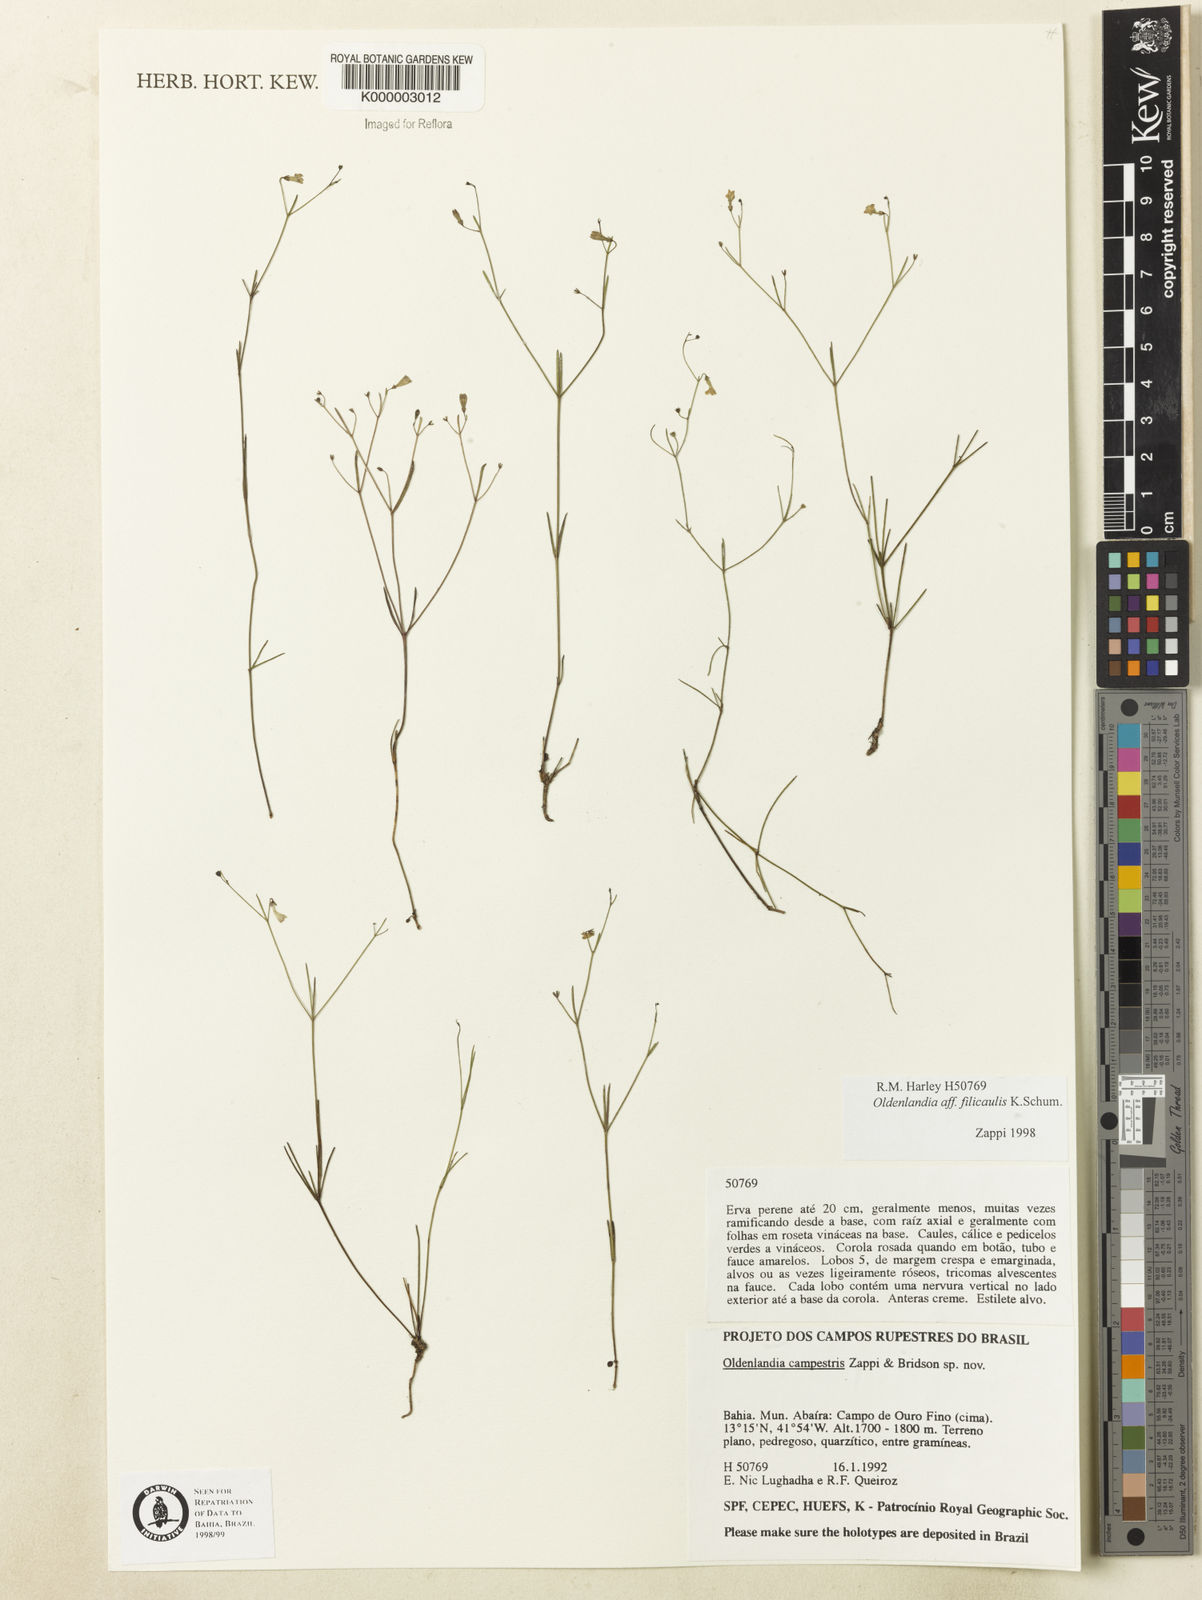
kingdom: Plantae
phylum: Tracheophyta
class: Magnoliopsida
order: Gentianales
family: Rubiaceae
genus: Oldenlandia
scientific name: Oldenlandia filicaulis
